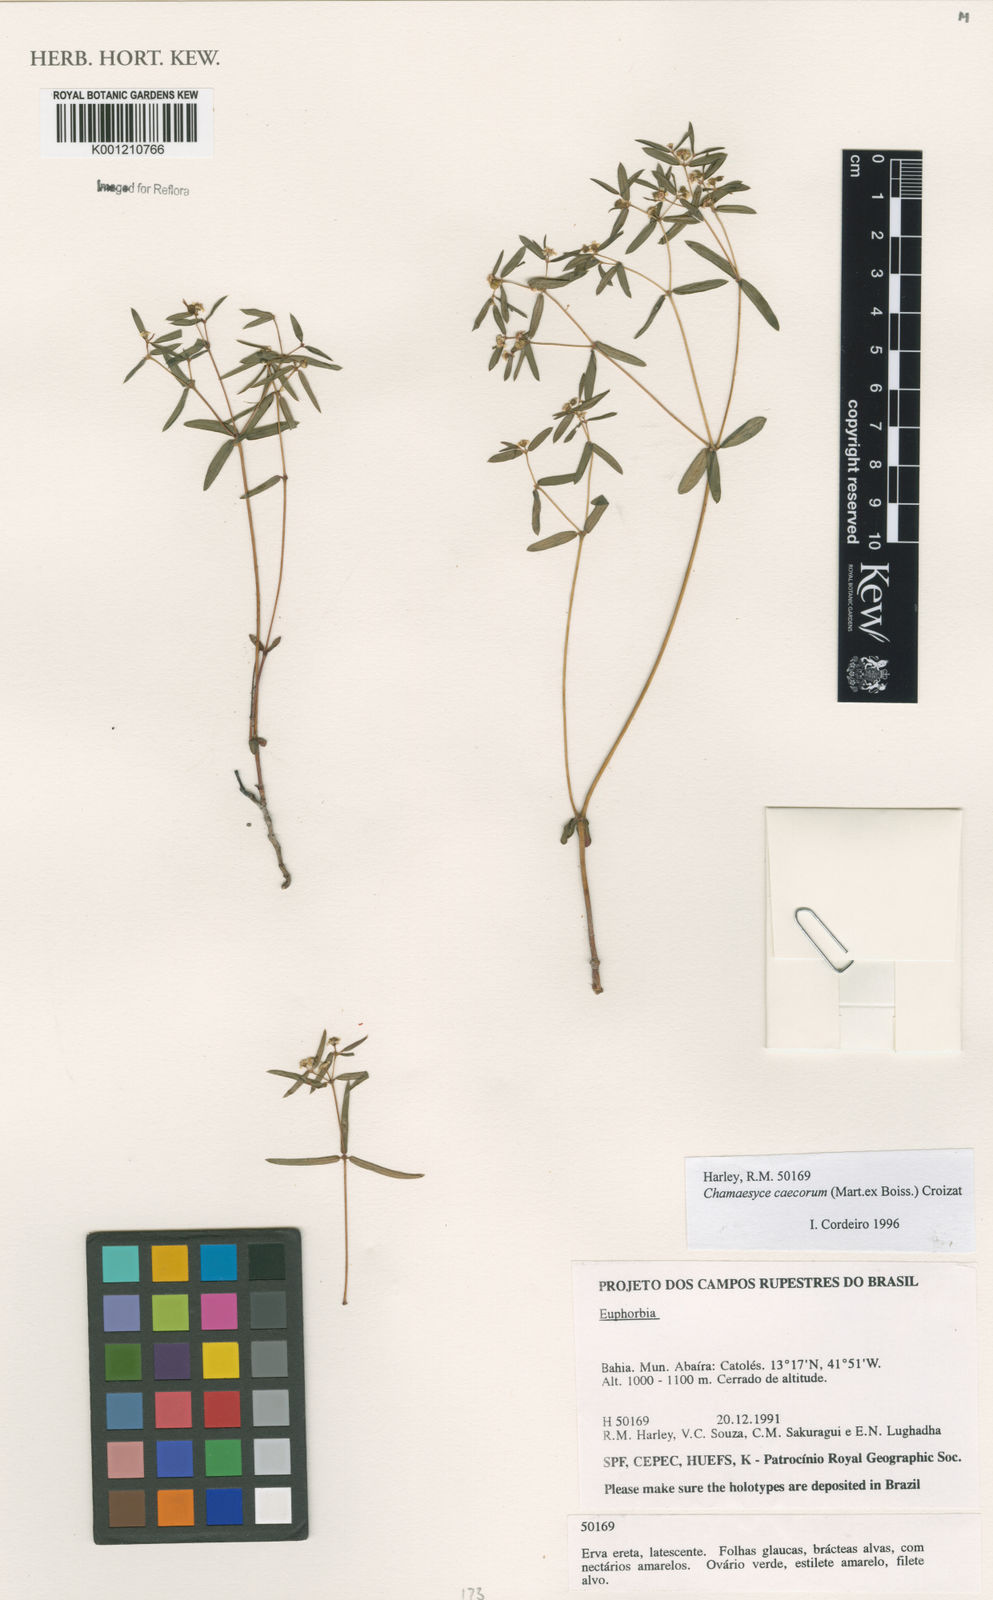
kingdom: Plantae
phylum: Tracheophyta
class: Magnoliopsida
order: Malpighiales
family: Euphorbiaceae
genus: Euphorbia
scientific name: Euphorbia potentilloides
